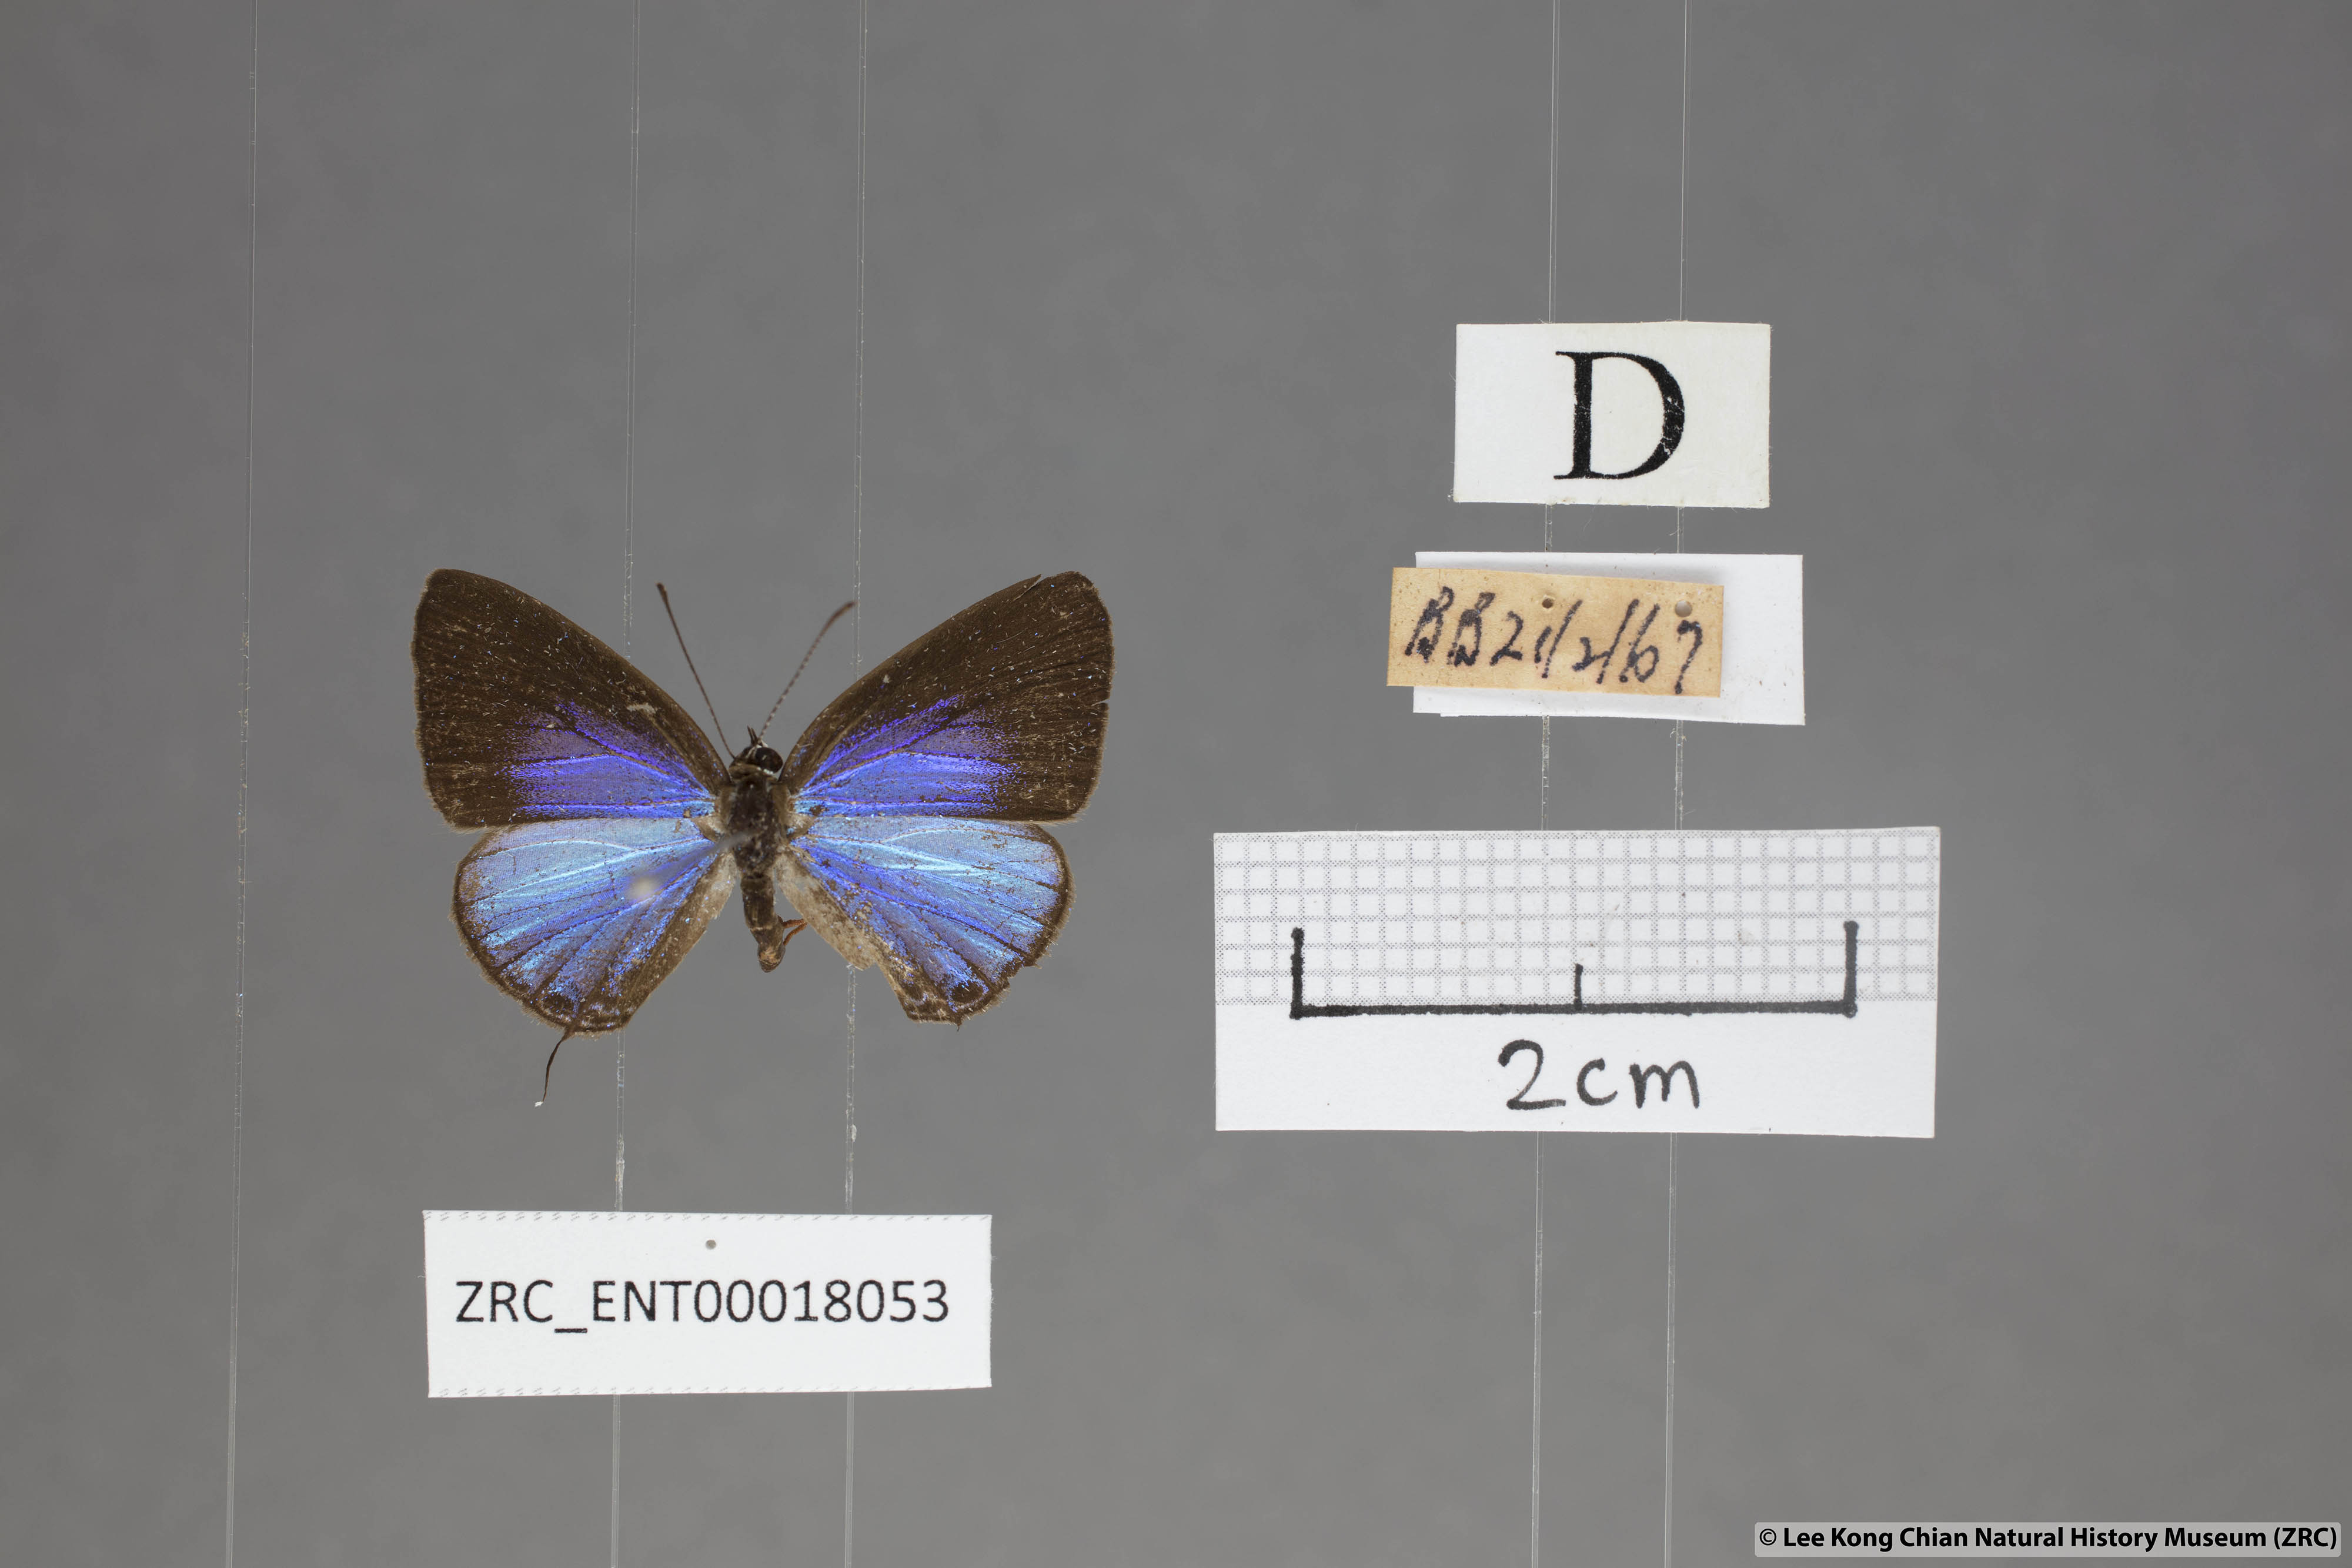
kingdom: Animalia
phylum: Arthropoda
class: Insecta
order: Lepidoptera
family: Lycaenidae
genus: Jamides
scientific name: Jamides bochus
